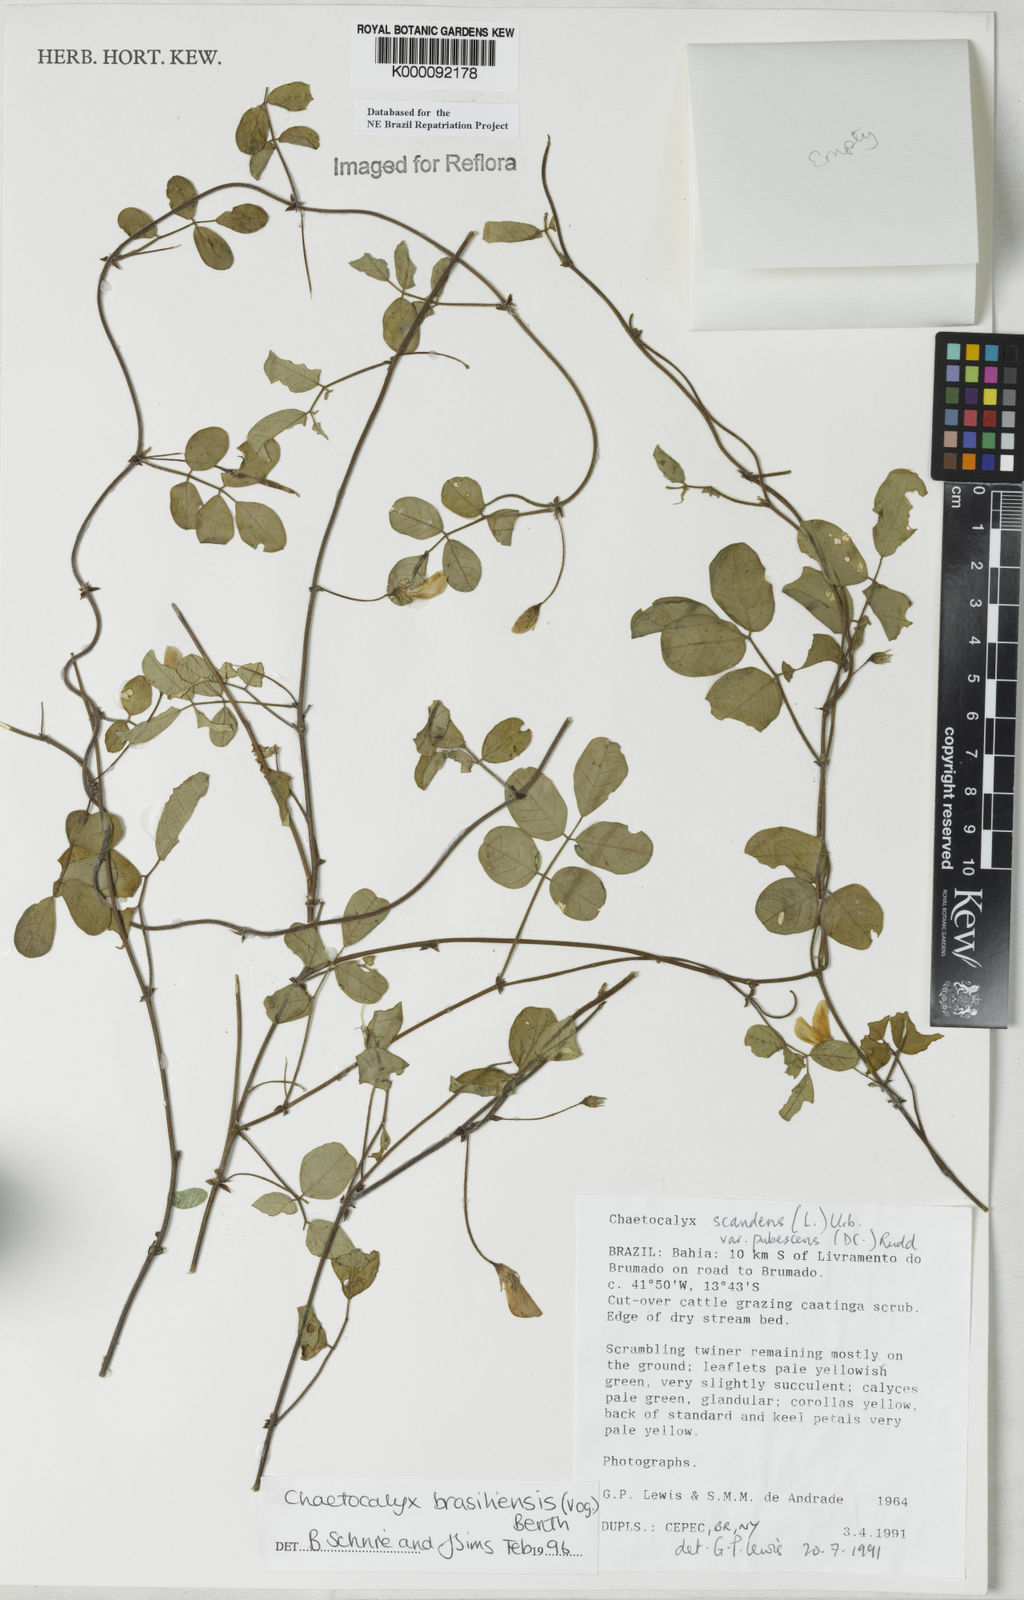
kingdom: Plantae
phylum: Tracheophyta
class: Magnoliopsida
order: Fabales
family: Fabaceae
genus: Nissolia
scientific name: Nissolia brasiliensis
